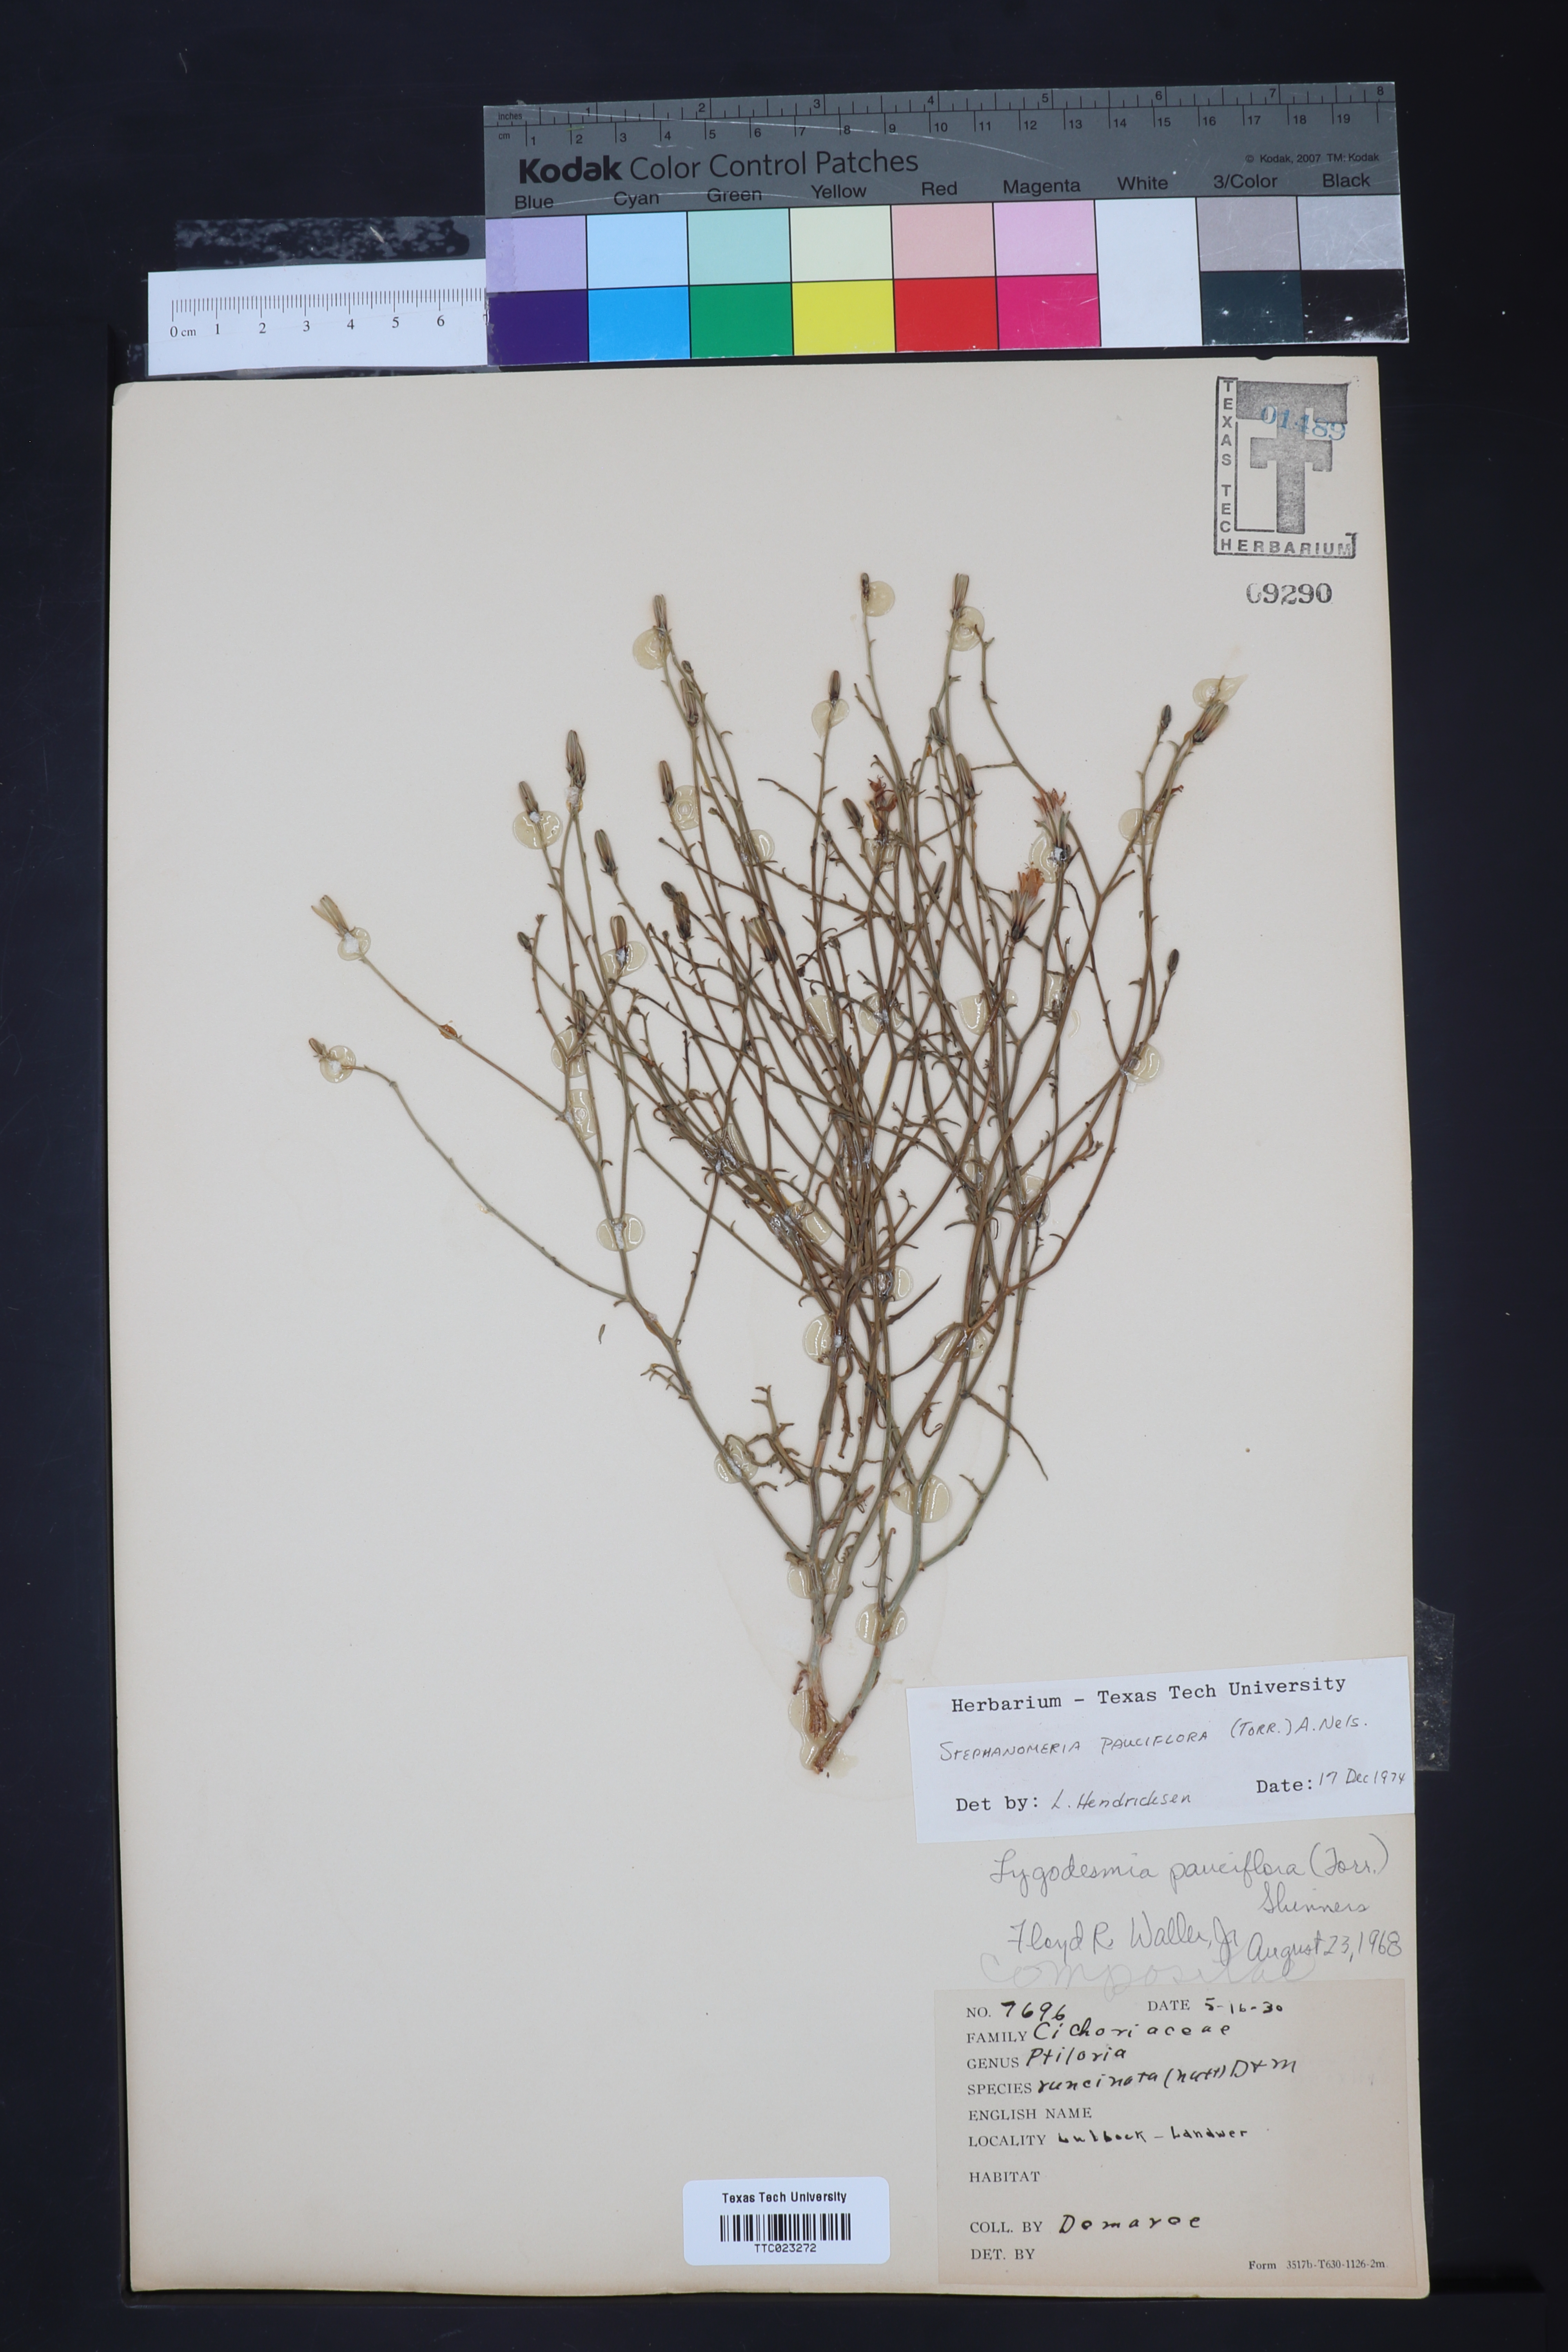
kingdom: Plantae
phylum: Tracheophyta
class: Magnoliopsida
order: Asterales
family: Asteraceae
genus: Stephanomeria
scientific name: Stephanomeria pauciflora
